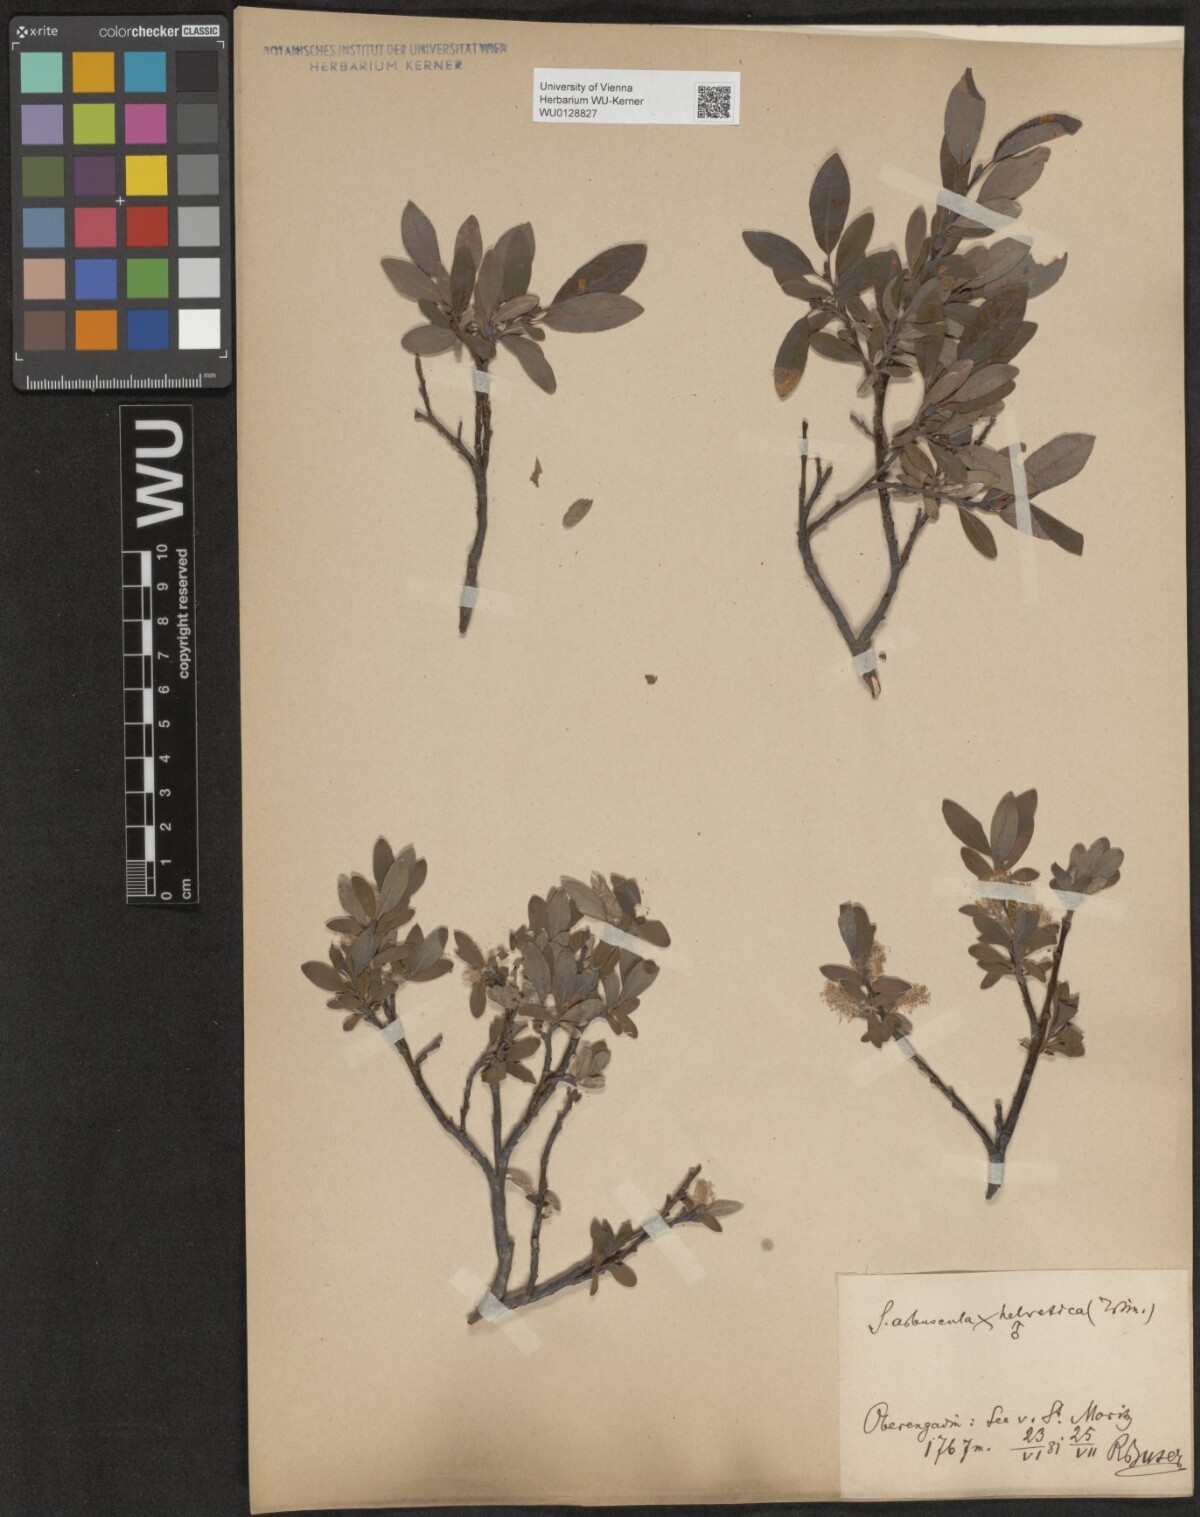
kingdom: Plantae
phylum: Tracheophyta
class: Magnoliopsida
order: Malpighiales
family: Salicaceae
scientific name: Salicaceae
